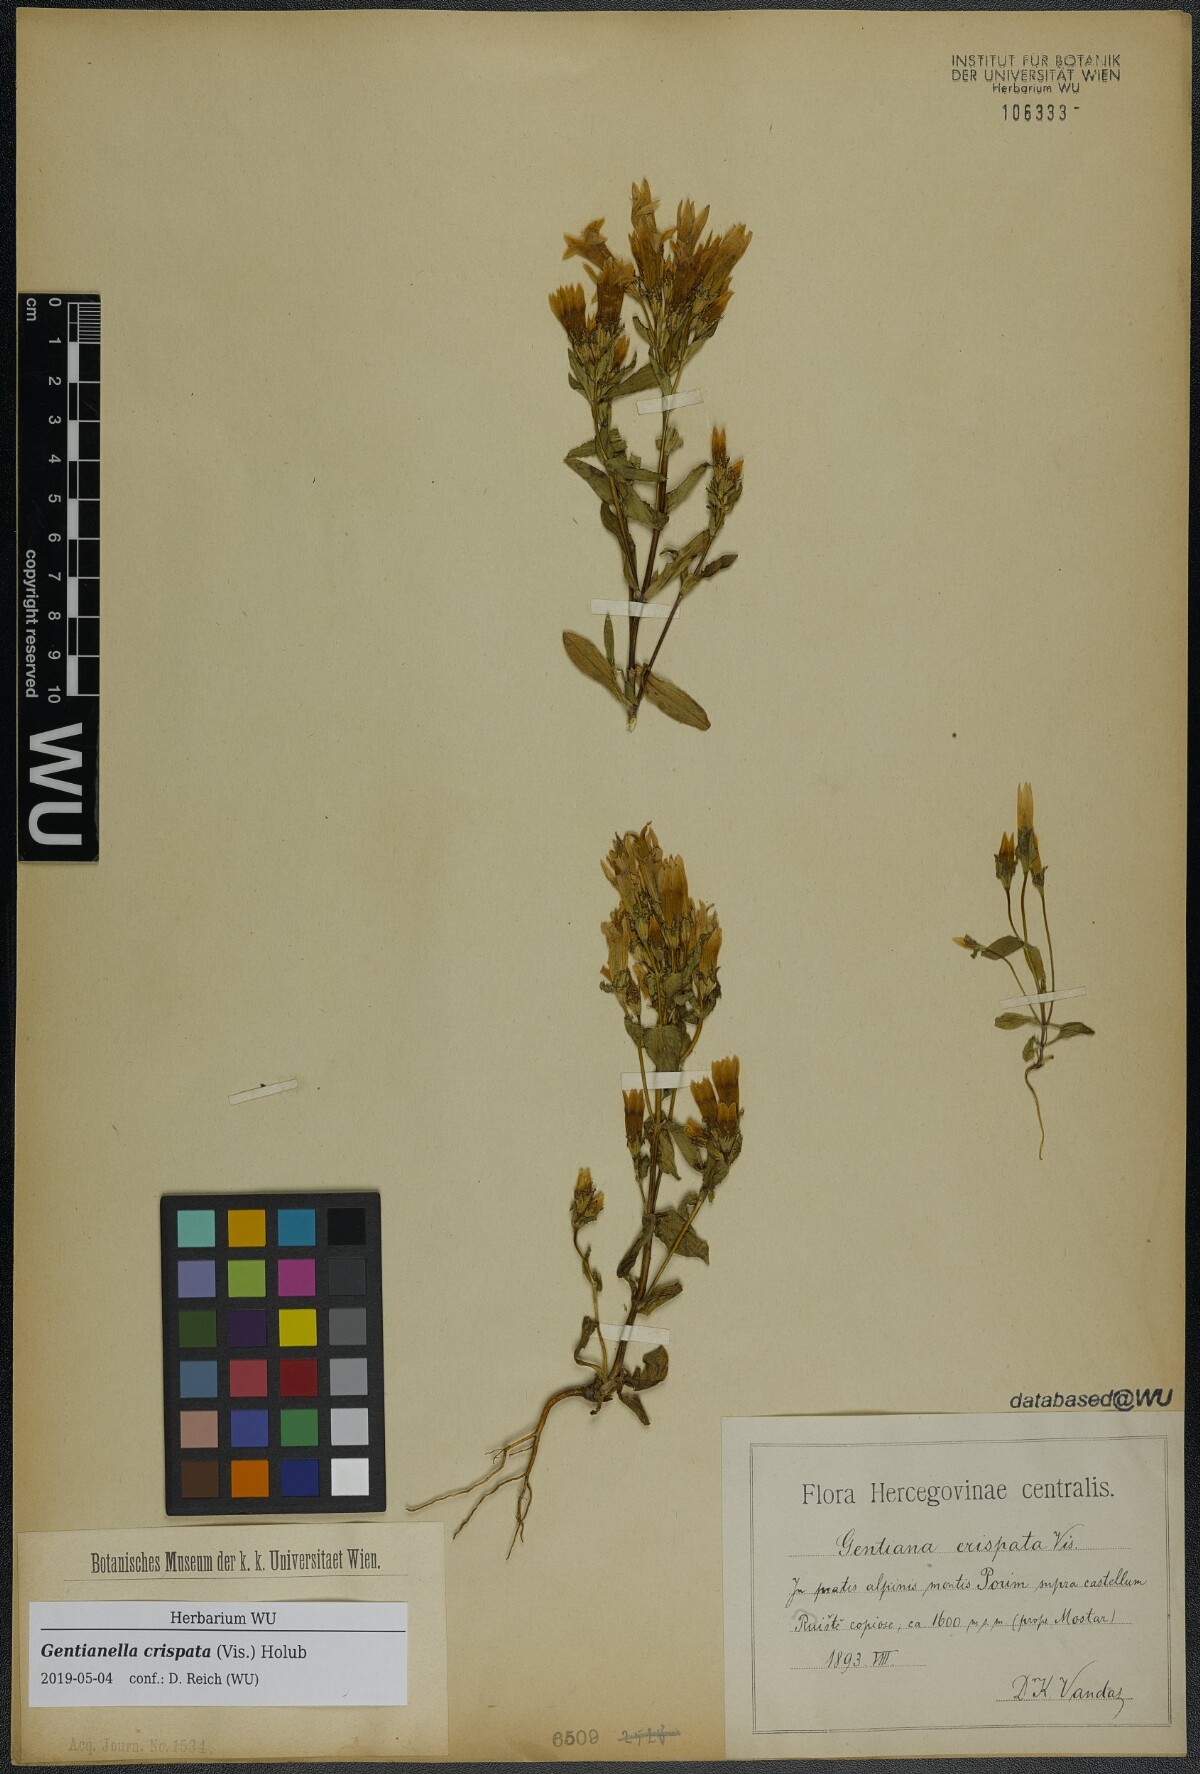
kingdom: Plantae
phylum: Tracheophyta
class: Magnoliopsida
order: Gentianales
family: Gentianaceae
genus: Gentianella
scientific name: Gentianella crispata
